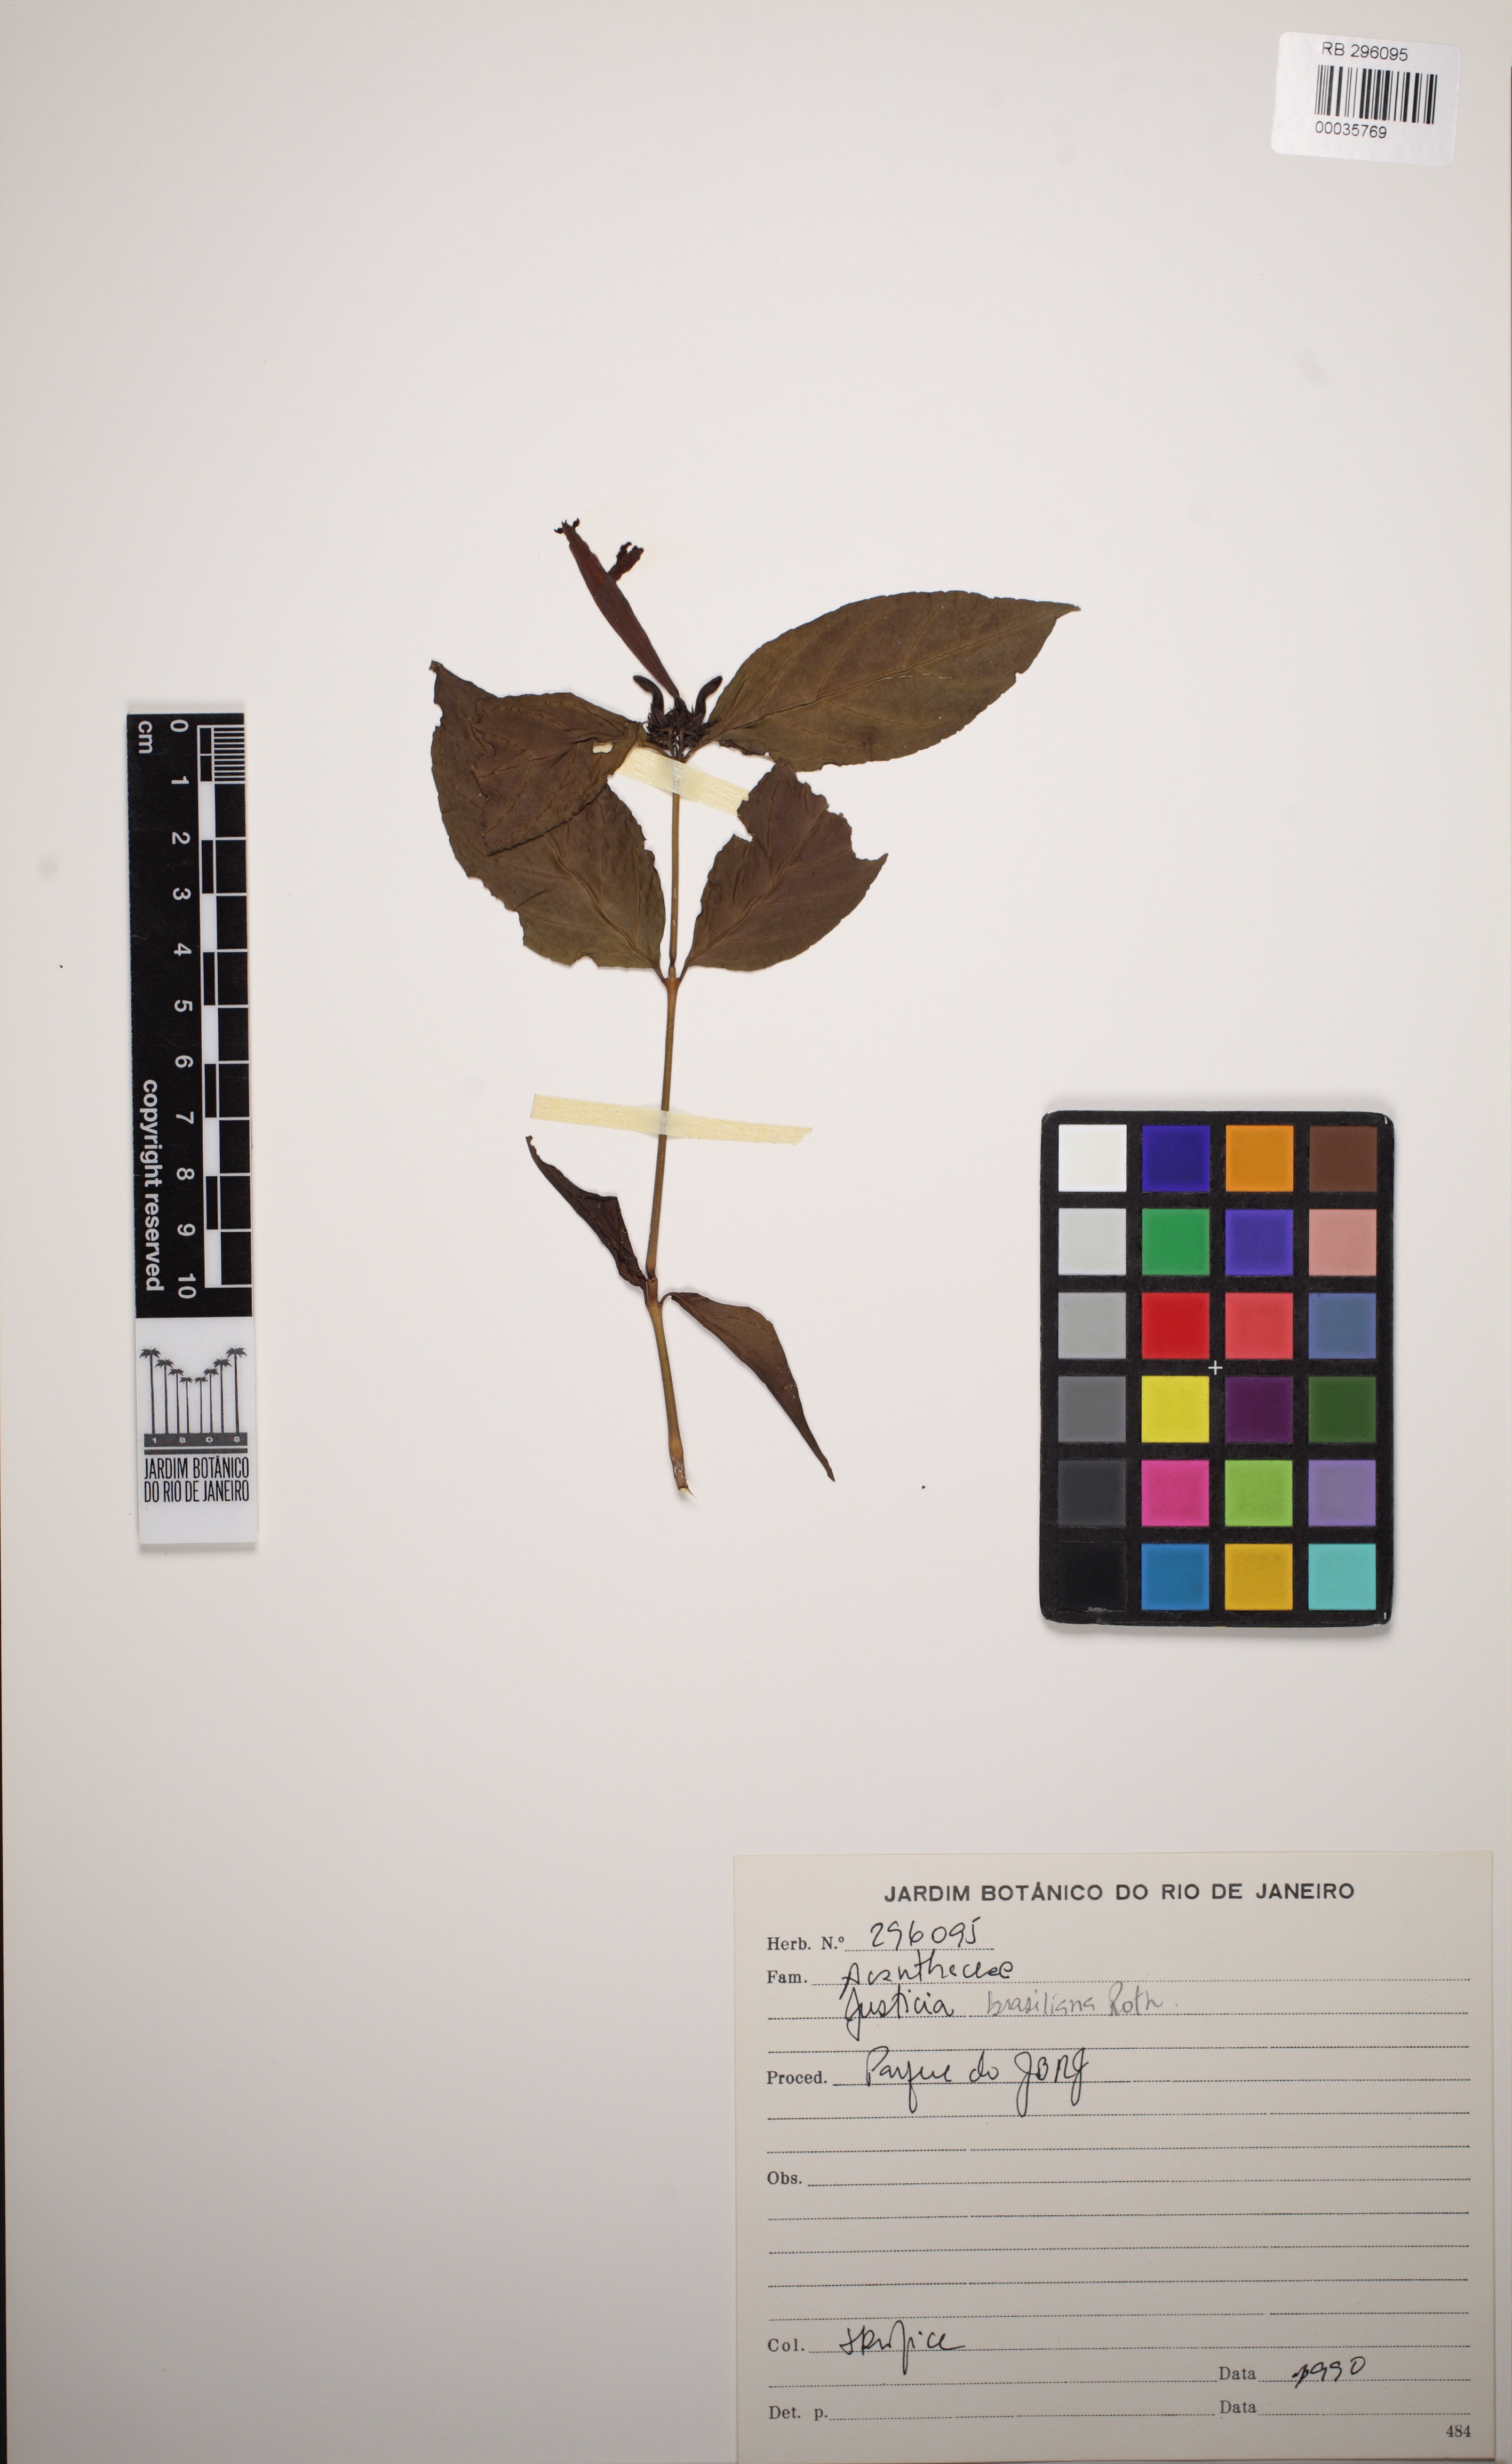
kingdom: Plantae
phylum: Tracheophyta
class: Magnoliopsida
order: Lamiales
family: Acanthaceae
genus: Justicia
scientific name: Justicia brasiliana
